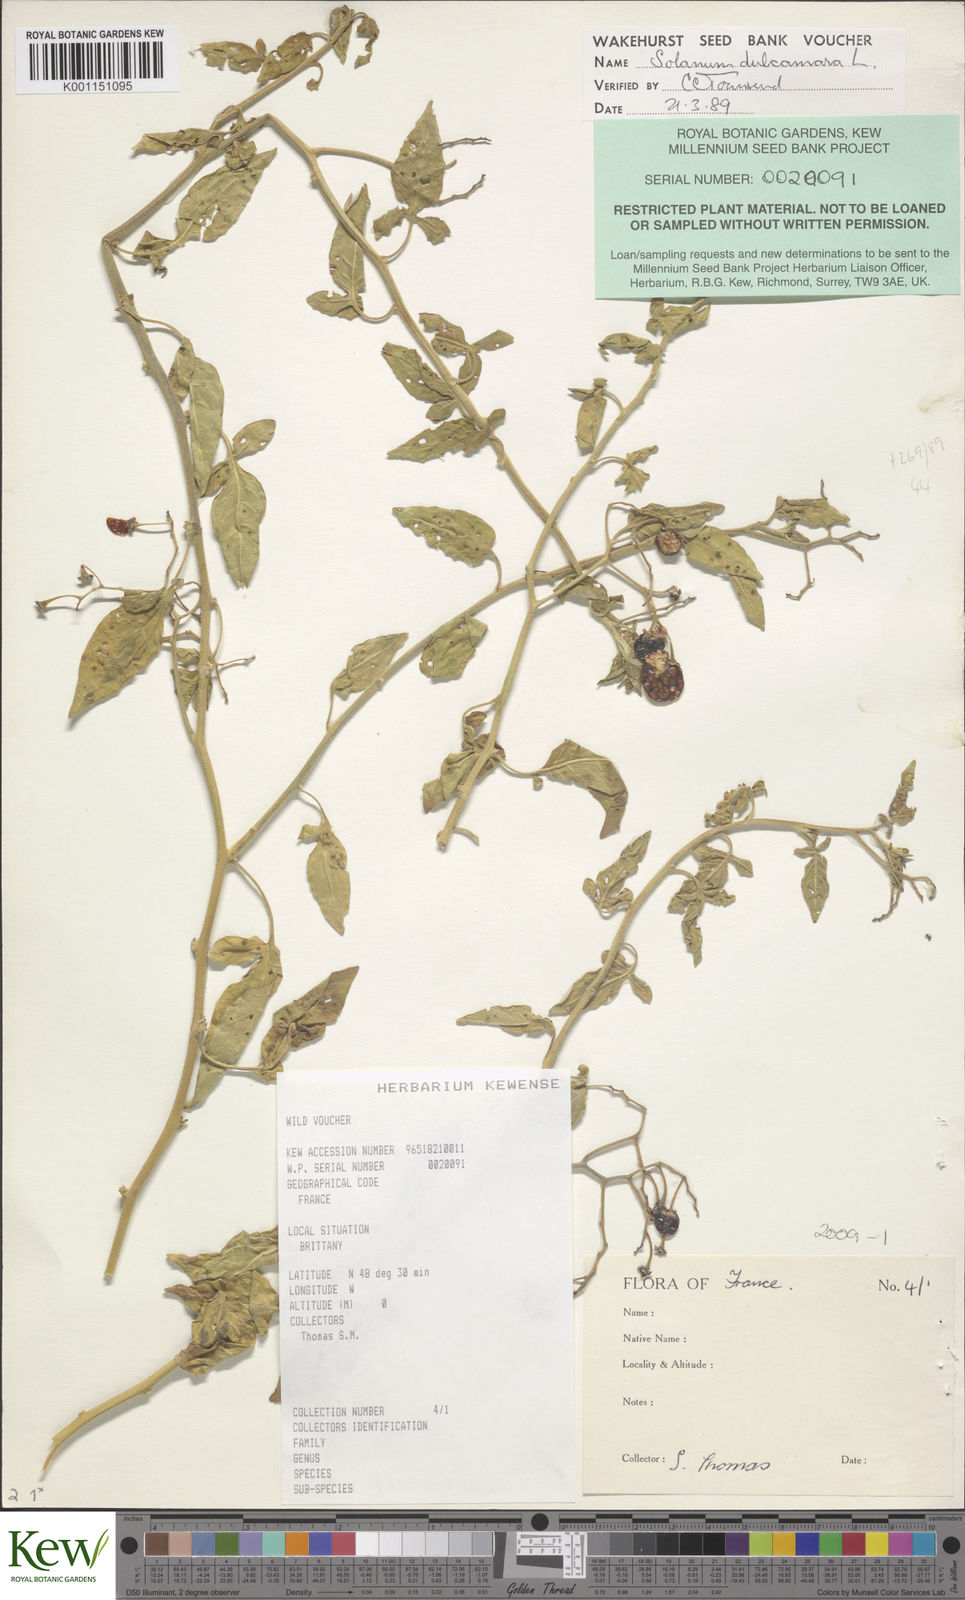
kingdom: Plantae
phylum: Tracheophyta
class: Magnoliopsida
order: Solanales
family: Solanaceae
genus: Solanum
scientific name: Solanum dulcamara
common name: Climbing nightshade
